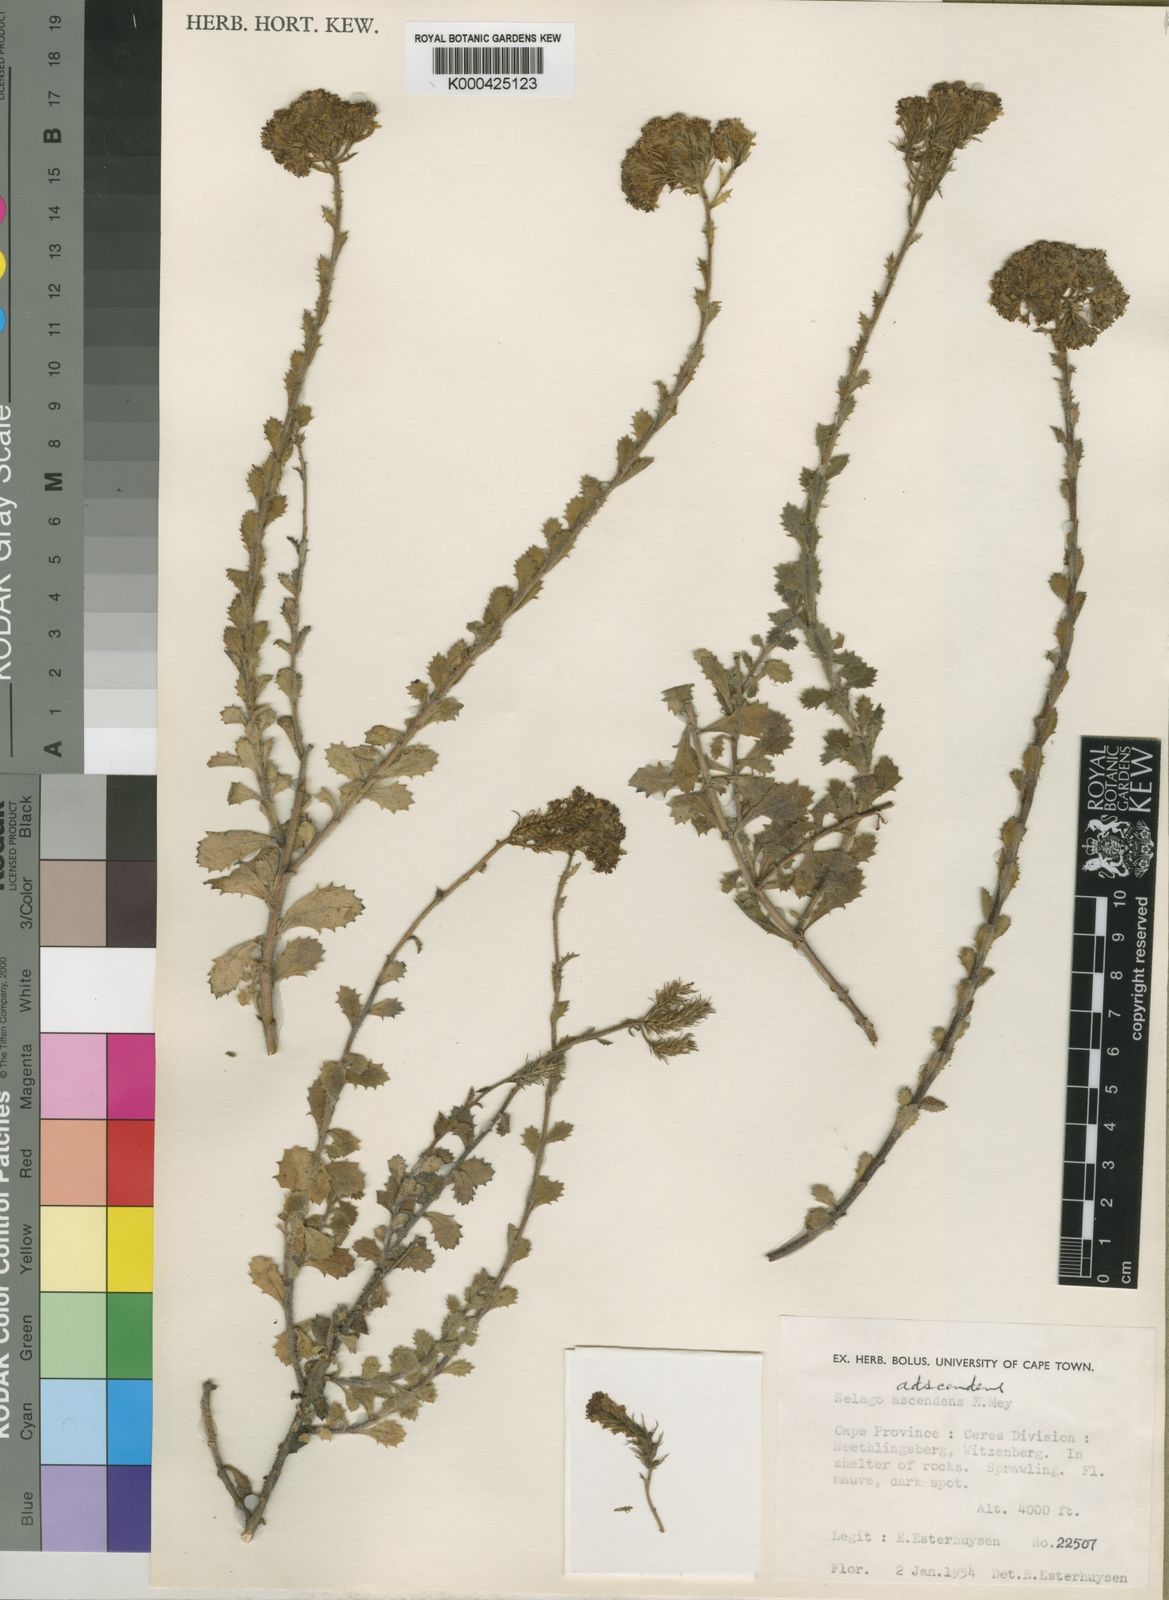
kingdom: Plantae
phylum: Tracheophyta
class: Magnoliopsida
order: Lamiales
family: Scrophulariaceae
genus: Pseudoselago
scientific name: Pseudoselago violacea
